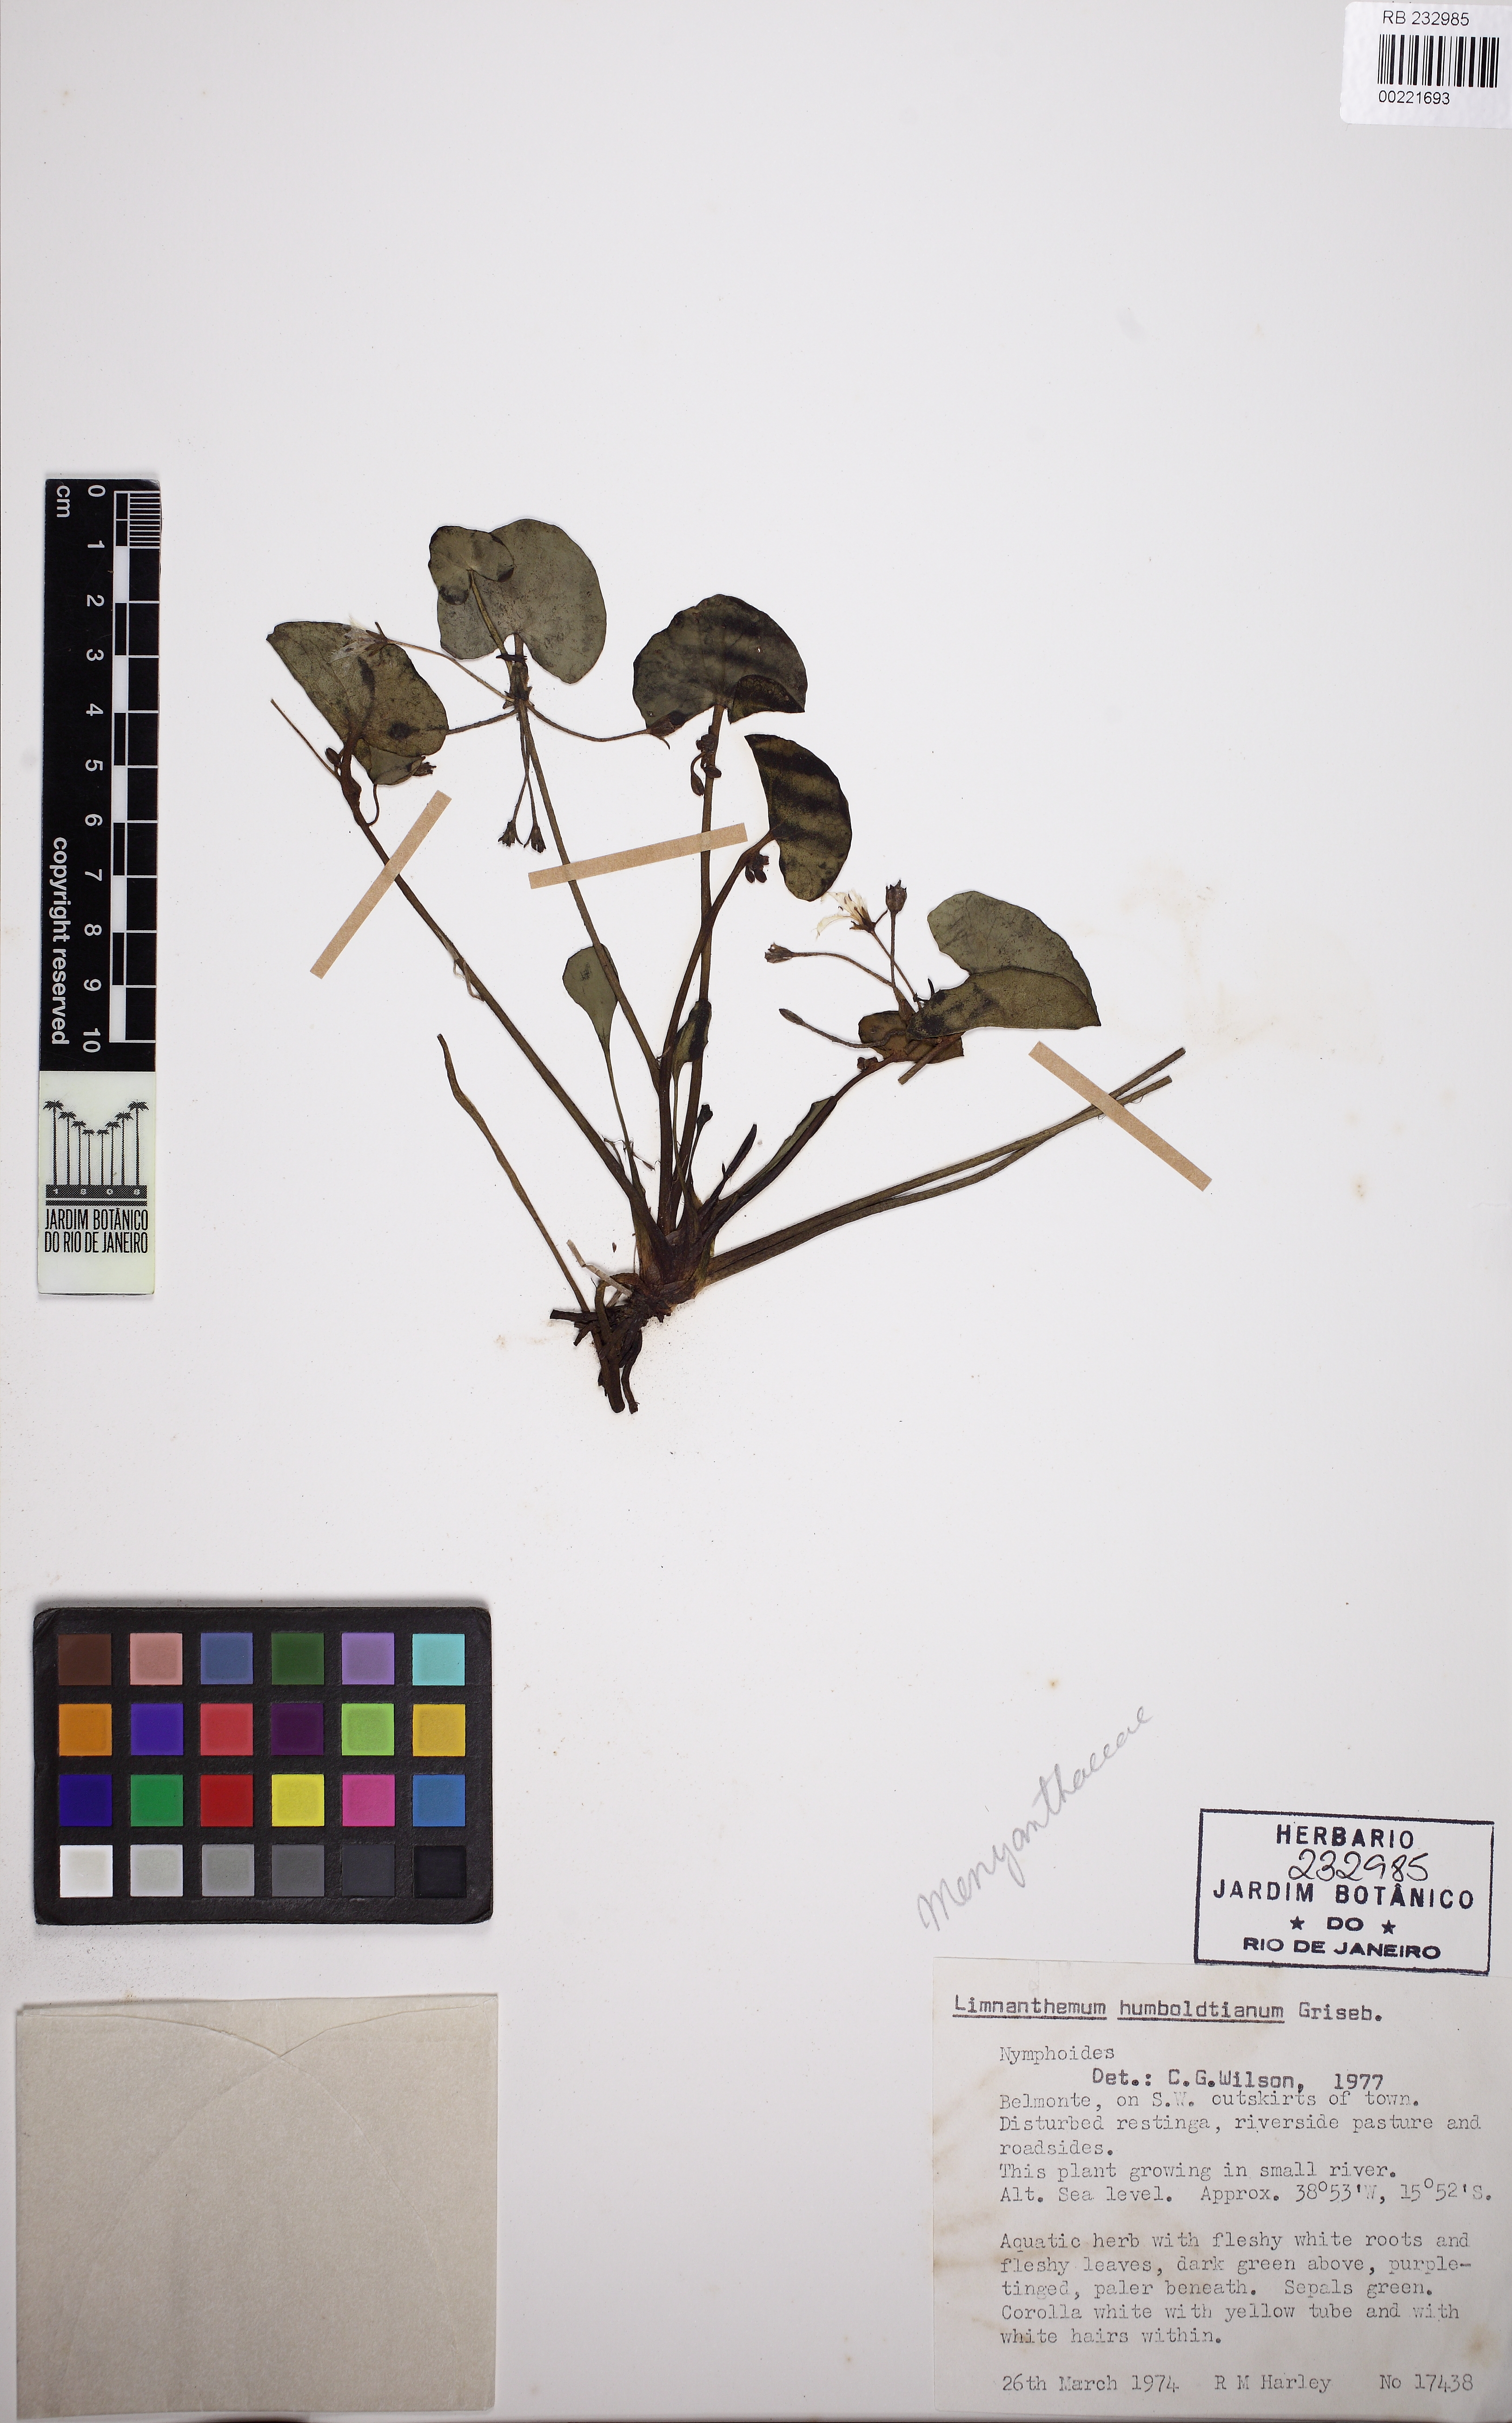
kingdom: Plantae
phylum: Tracheophyta
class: Magnoliopsida
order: Asterales
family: Menyanthaceae
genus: Nymphoides
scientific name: Nymphoides
